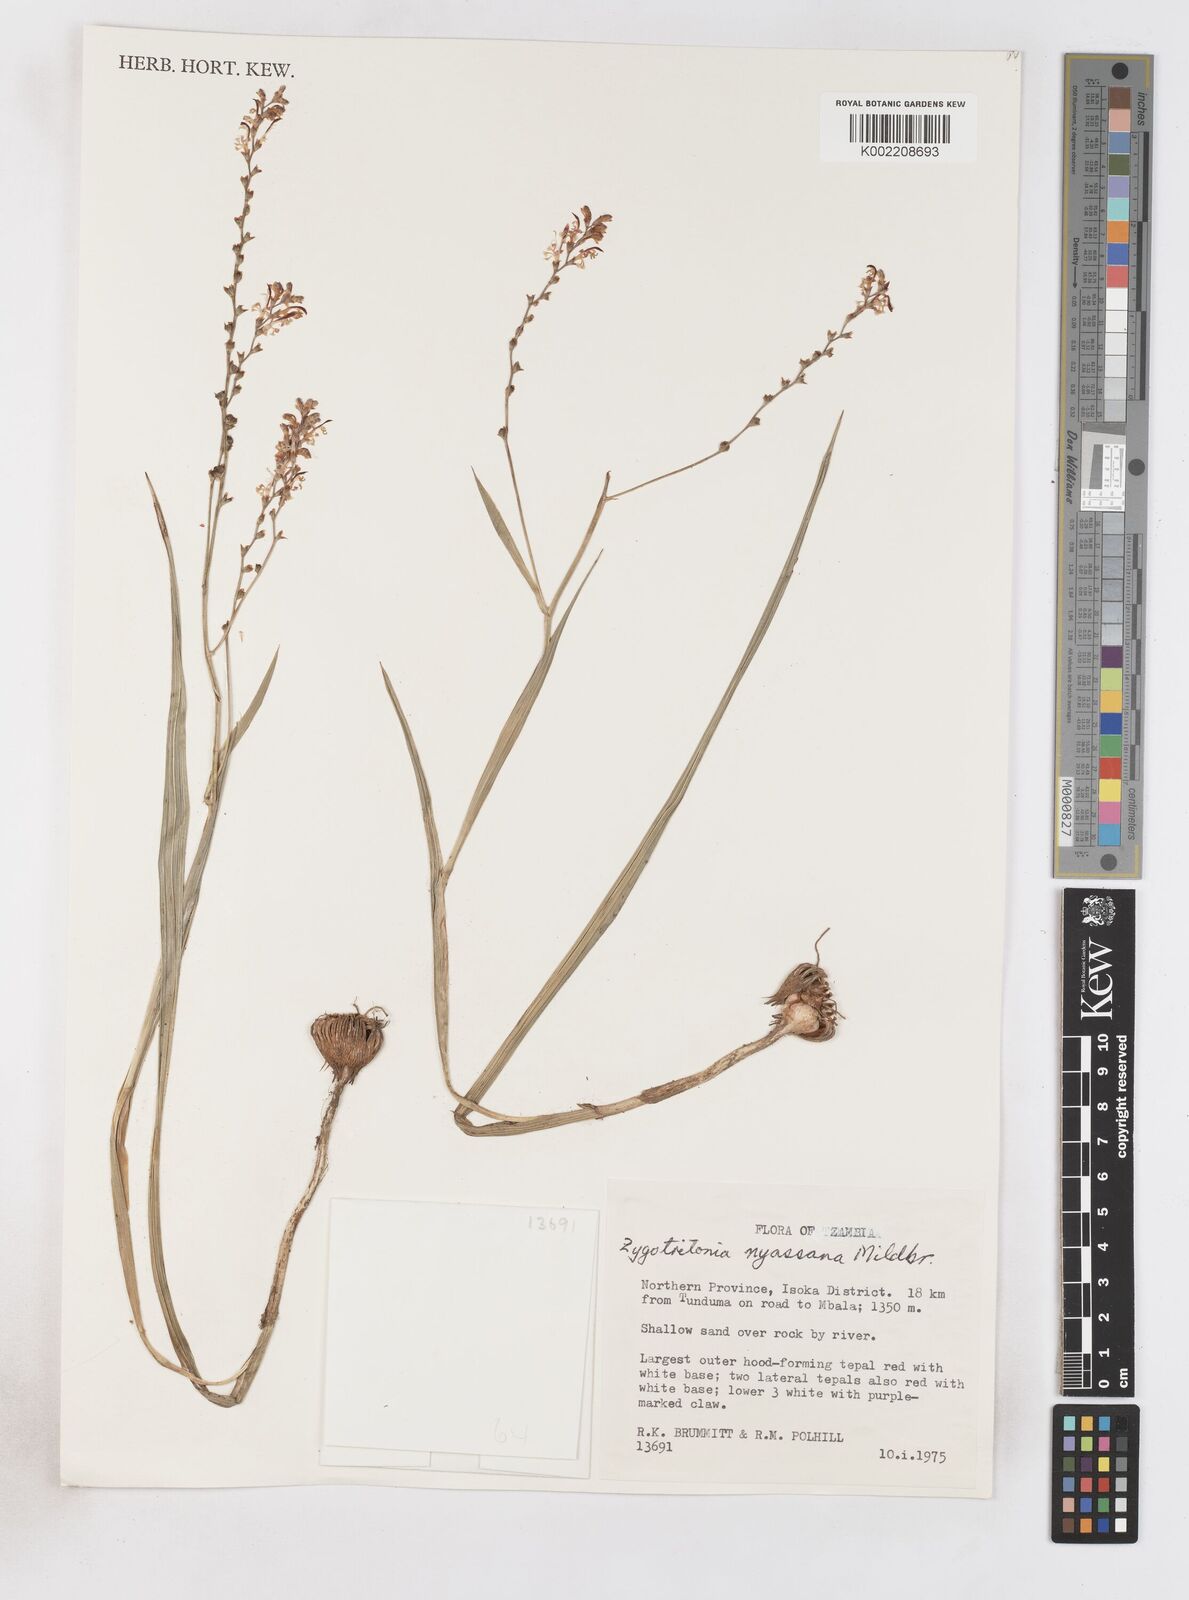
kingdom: Plantae
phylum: Tracheophyta
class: Liliopsida
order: Asparagales
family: Iridaceae
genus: Zygotritonia
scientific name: Zygotritonia nyassana
